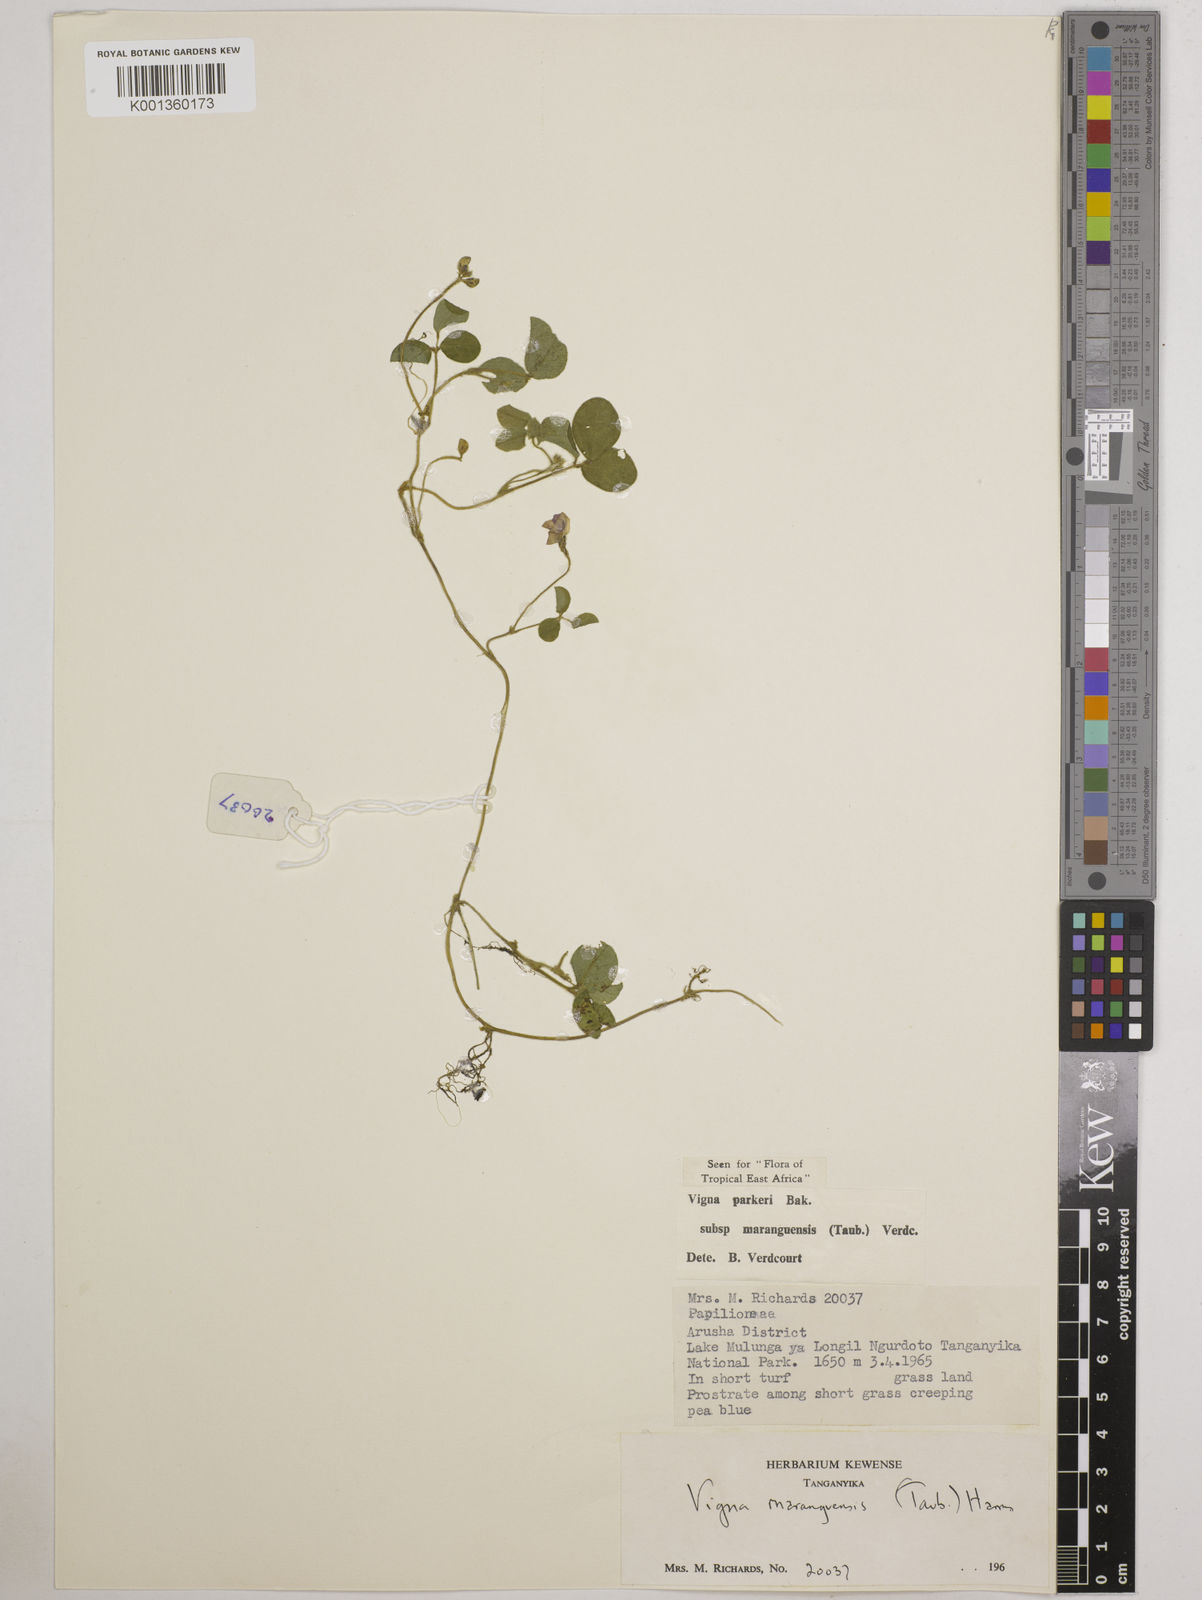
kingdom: Plantae
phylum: Tracheophyta
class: Magnoliopsida
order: Fabales
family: Fabaceae
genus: Vigna
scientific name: Vigna
